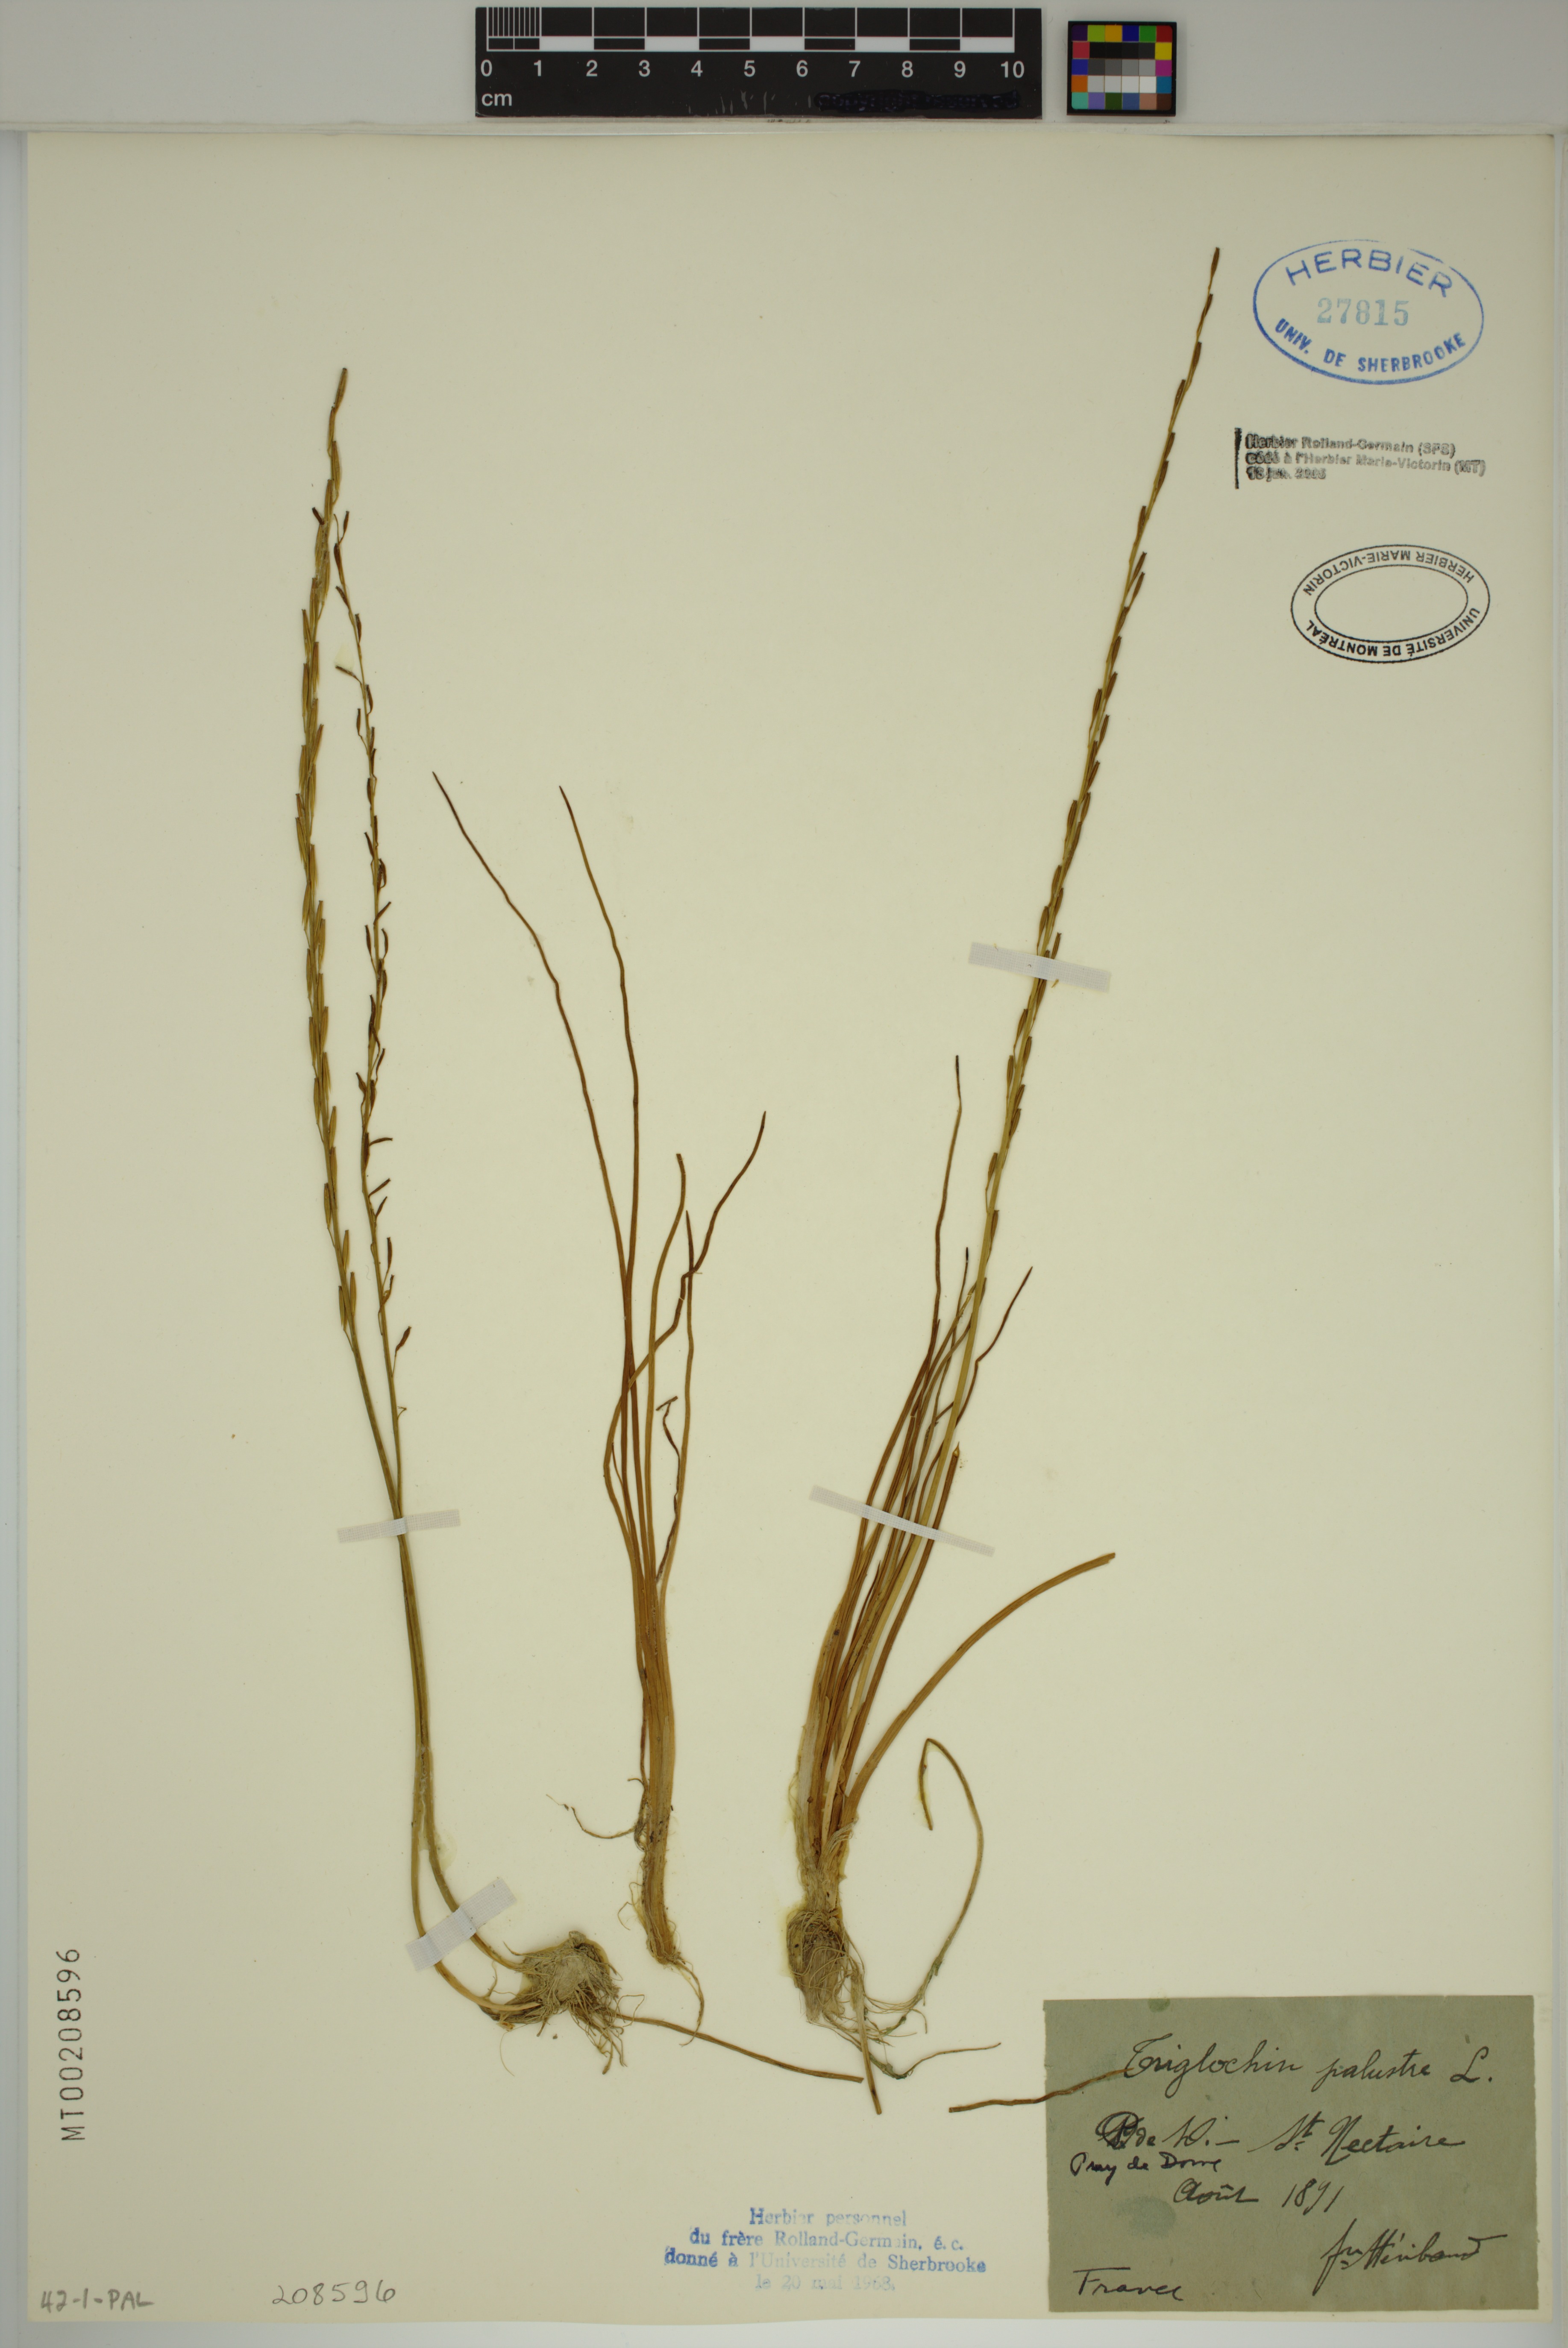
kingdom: Plantae
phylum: Tracheophyta
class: Liliopsida
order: Alismatales
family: Juncaginaceae
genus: Triglochin
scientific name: Triglochin palustris
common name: Marsh arrowgrass
